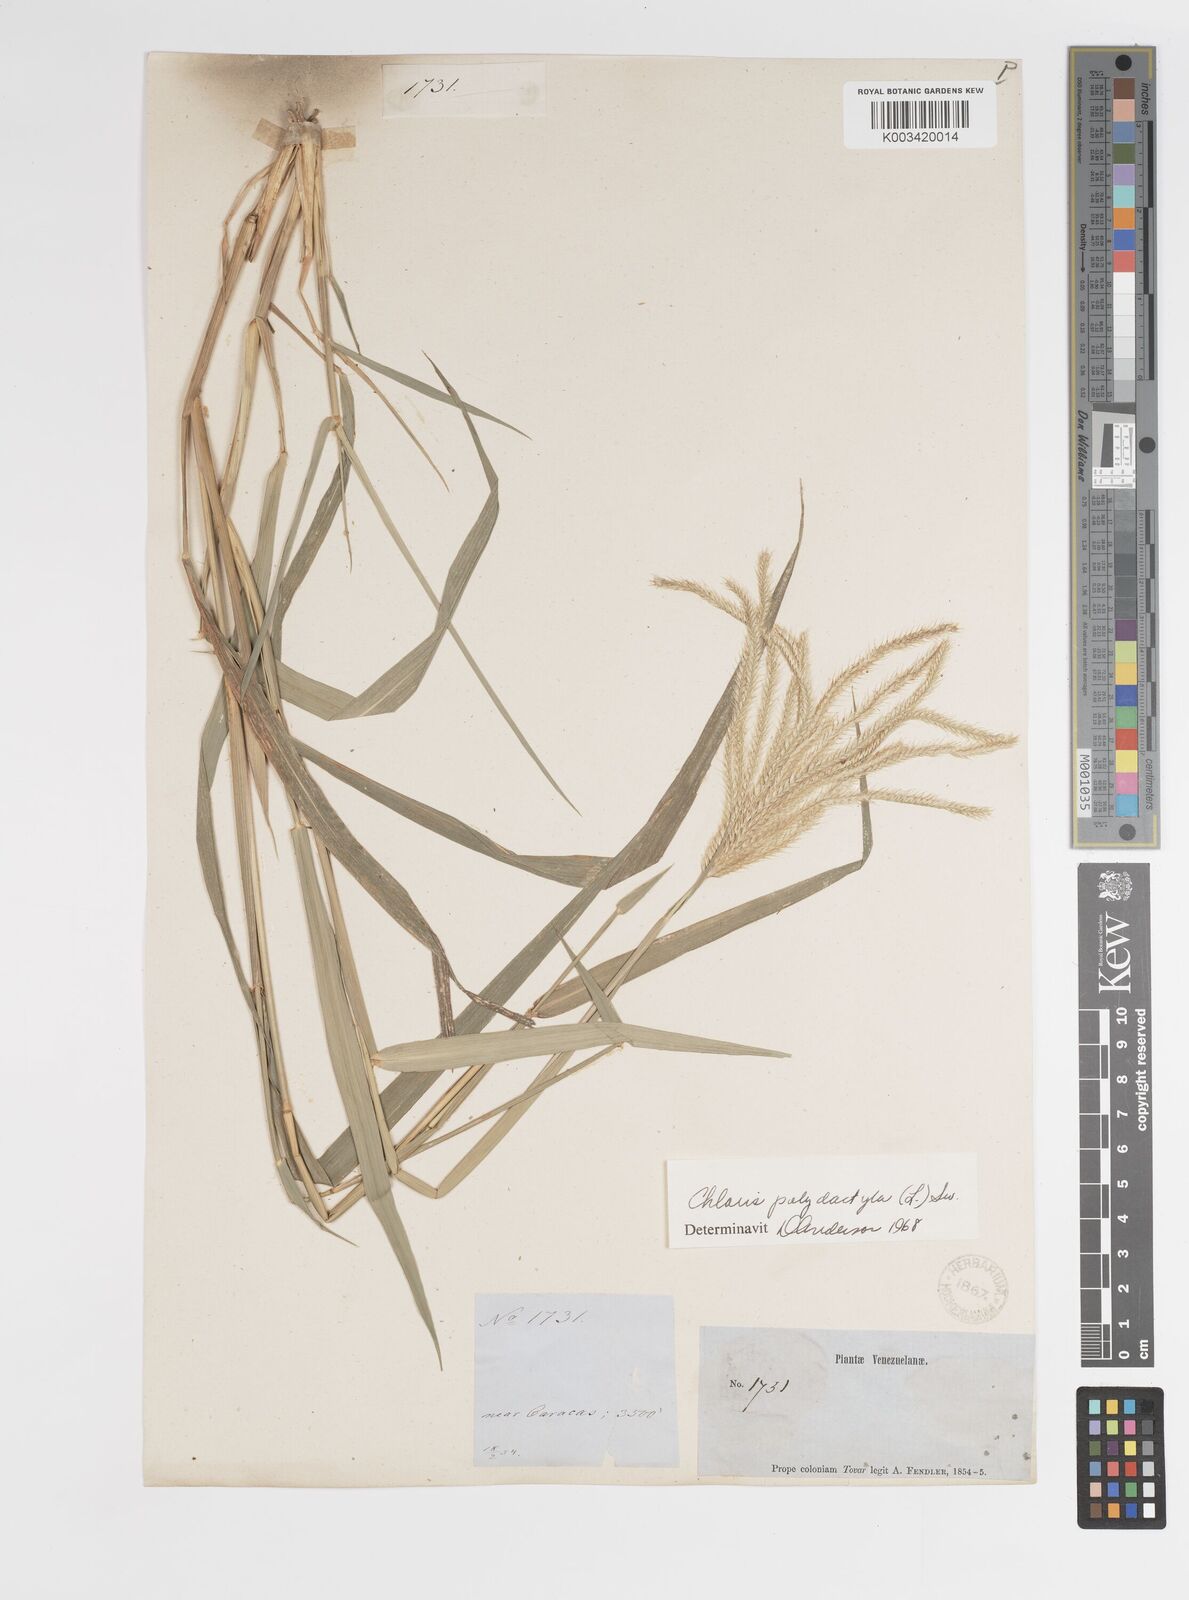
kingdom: Plantae
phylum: Tracheophyta
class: Liliopsida
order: Poales
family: Poaceae
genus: Stapfochloa
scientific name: Stapfochloa elata
